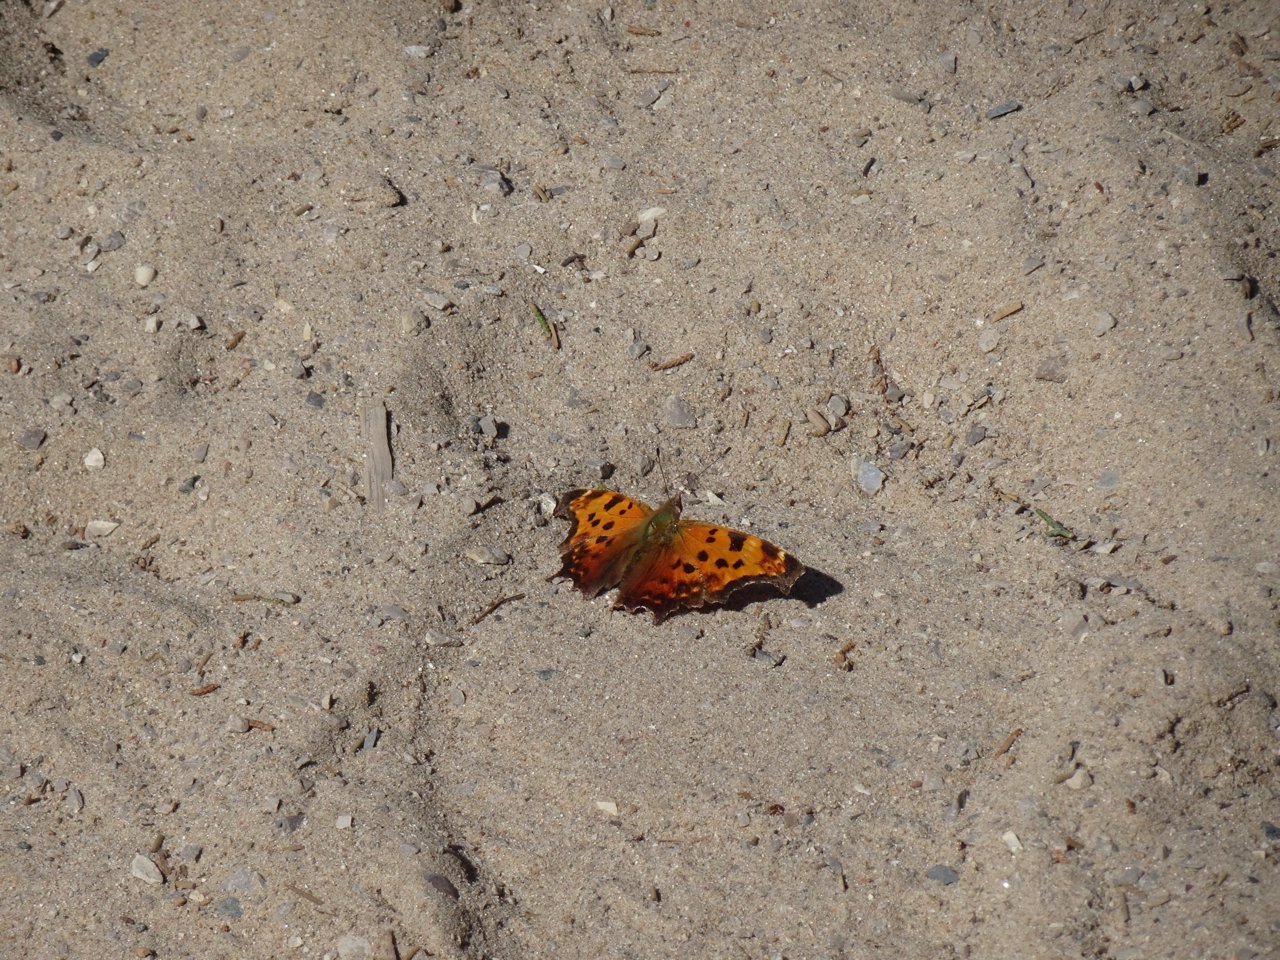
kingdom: Animalia
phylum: Arthropoda
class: Insecta
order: Lepidoptera
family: Nymphalidae
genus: Polygonia
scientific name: Polygonia comma
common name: Eastern Comma
